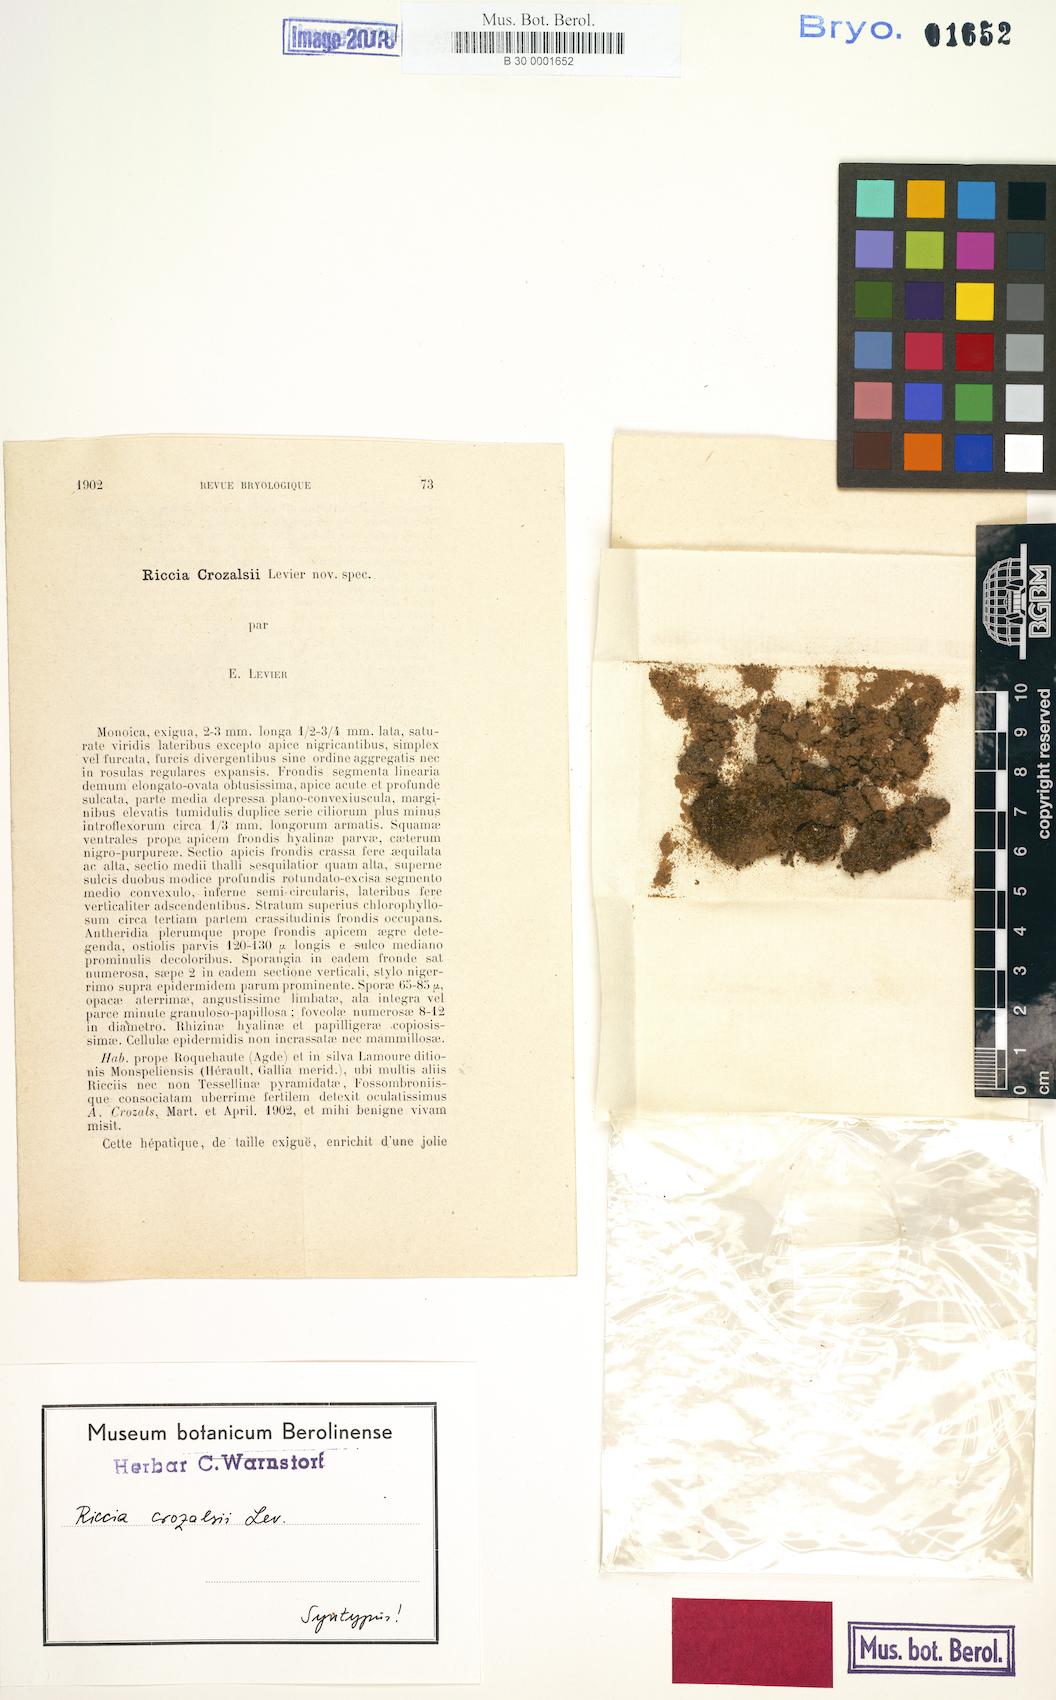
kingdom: Plantae
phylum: Marchantiophyta
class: Marchantiopsida
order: Marchantiales
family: Ricciaceae
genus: Riccia
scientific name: Riccia crozalsii
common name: Ciliate crystalwort
